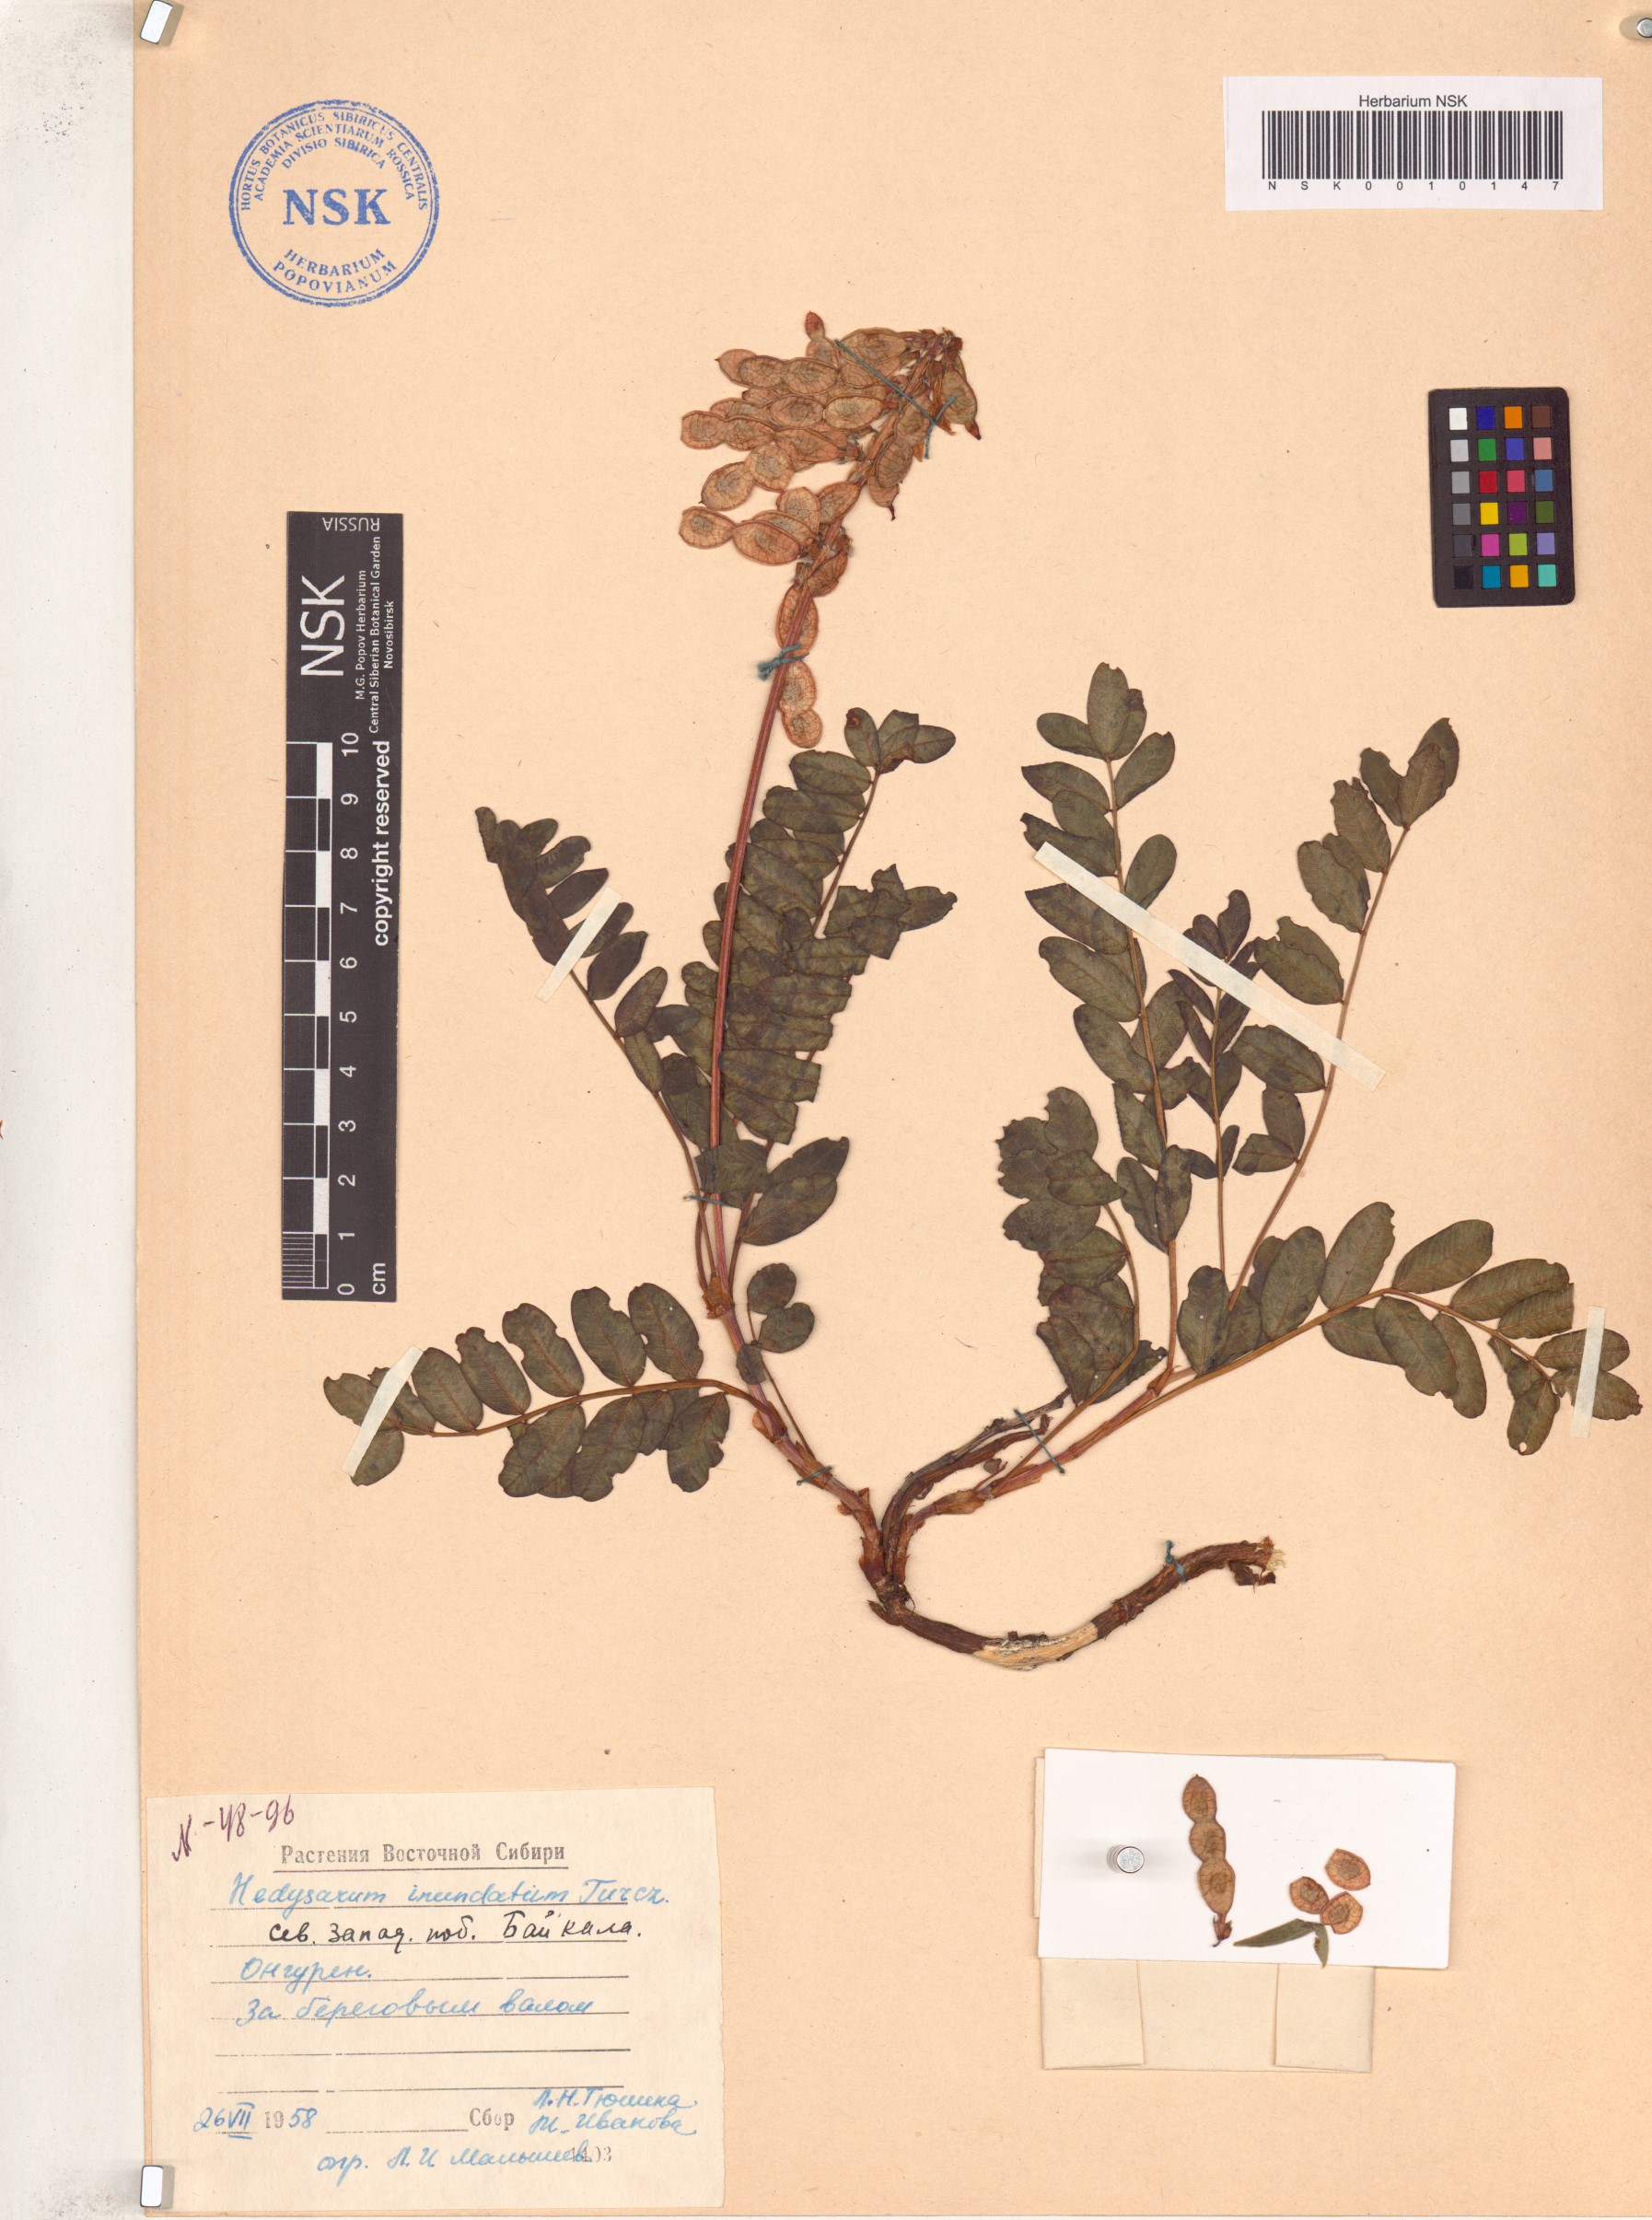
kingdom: Plantae
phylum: Tracheophyta
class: Magnoliopsida
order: Fabales
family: Fabaceae
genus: Hedysarum
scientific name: Hedysarum inundatum
